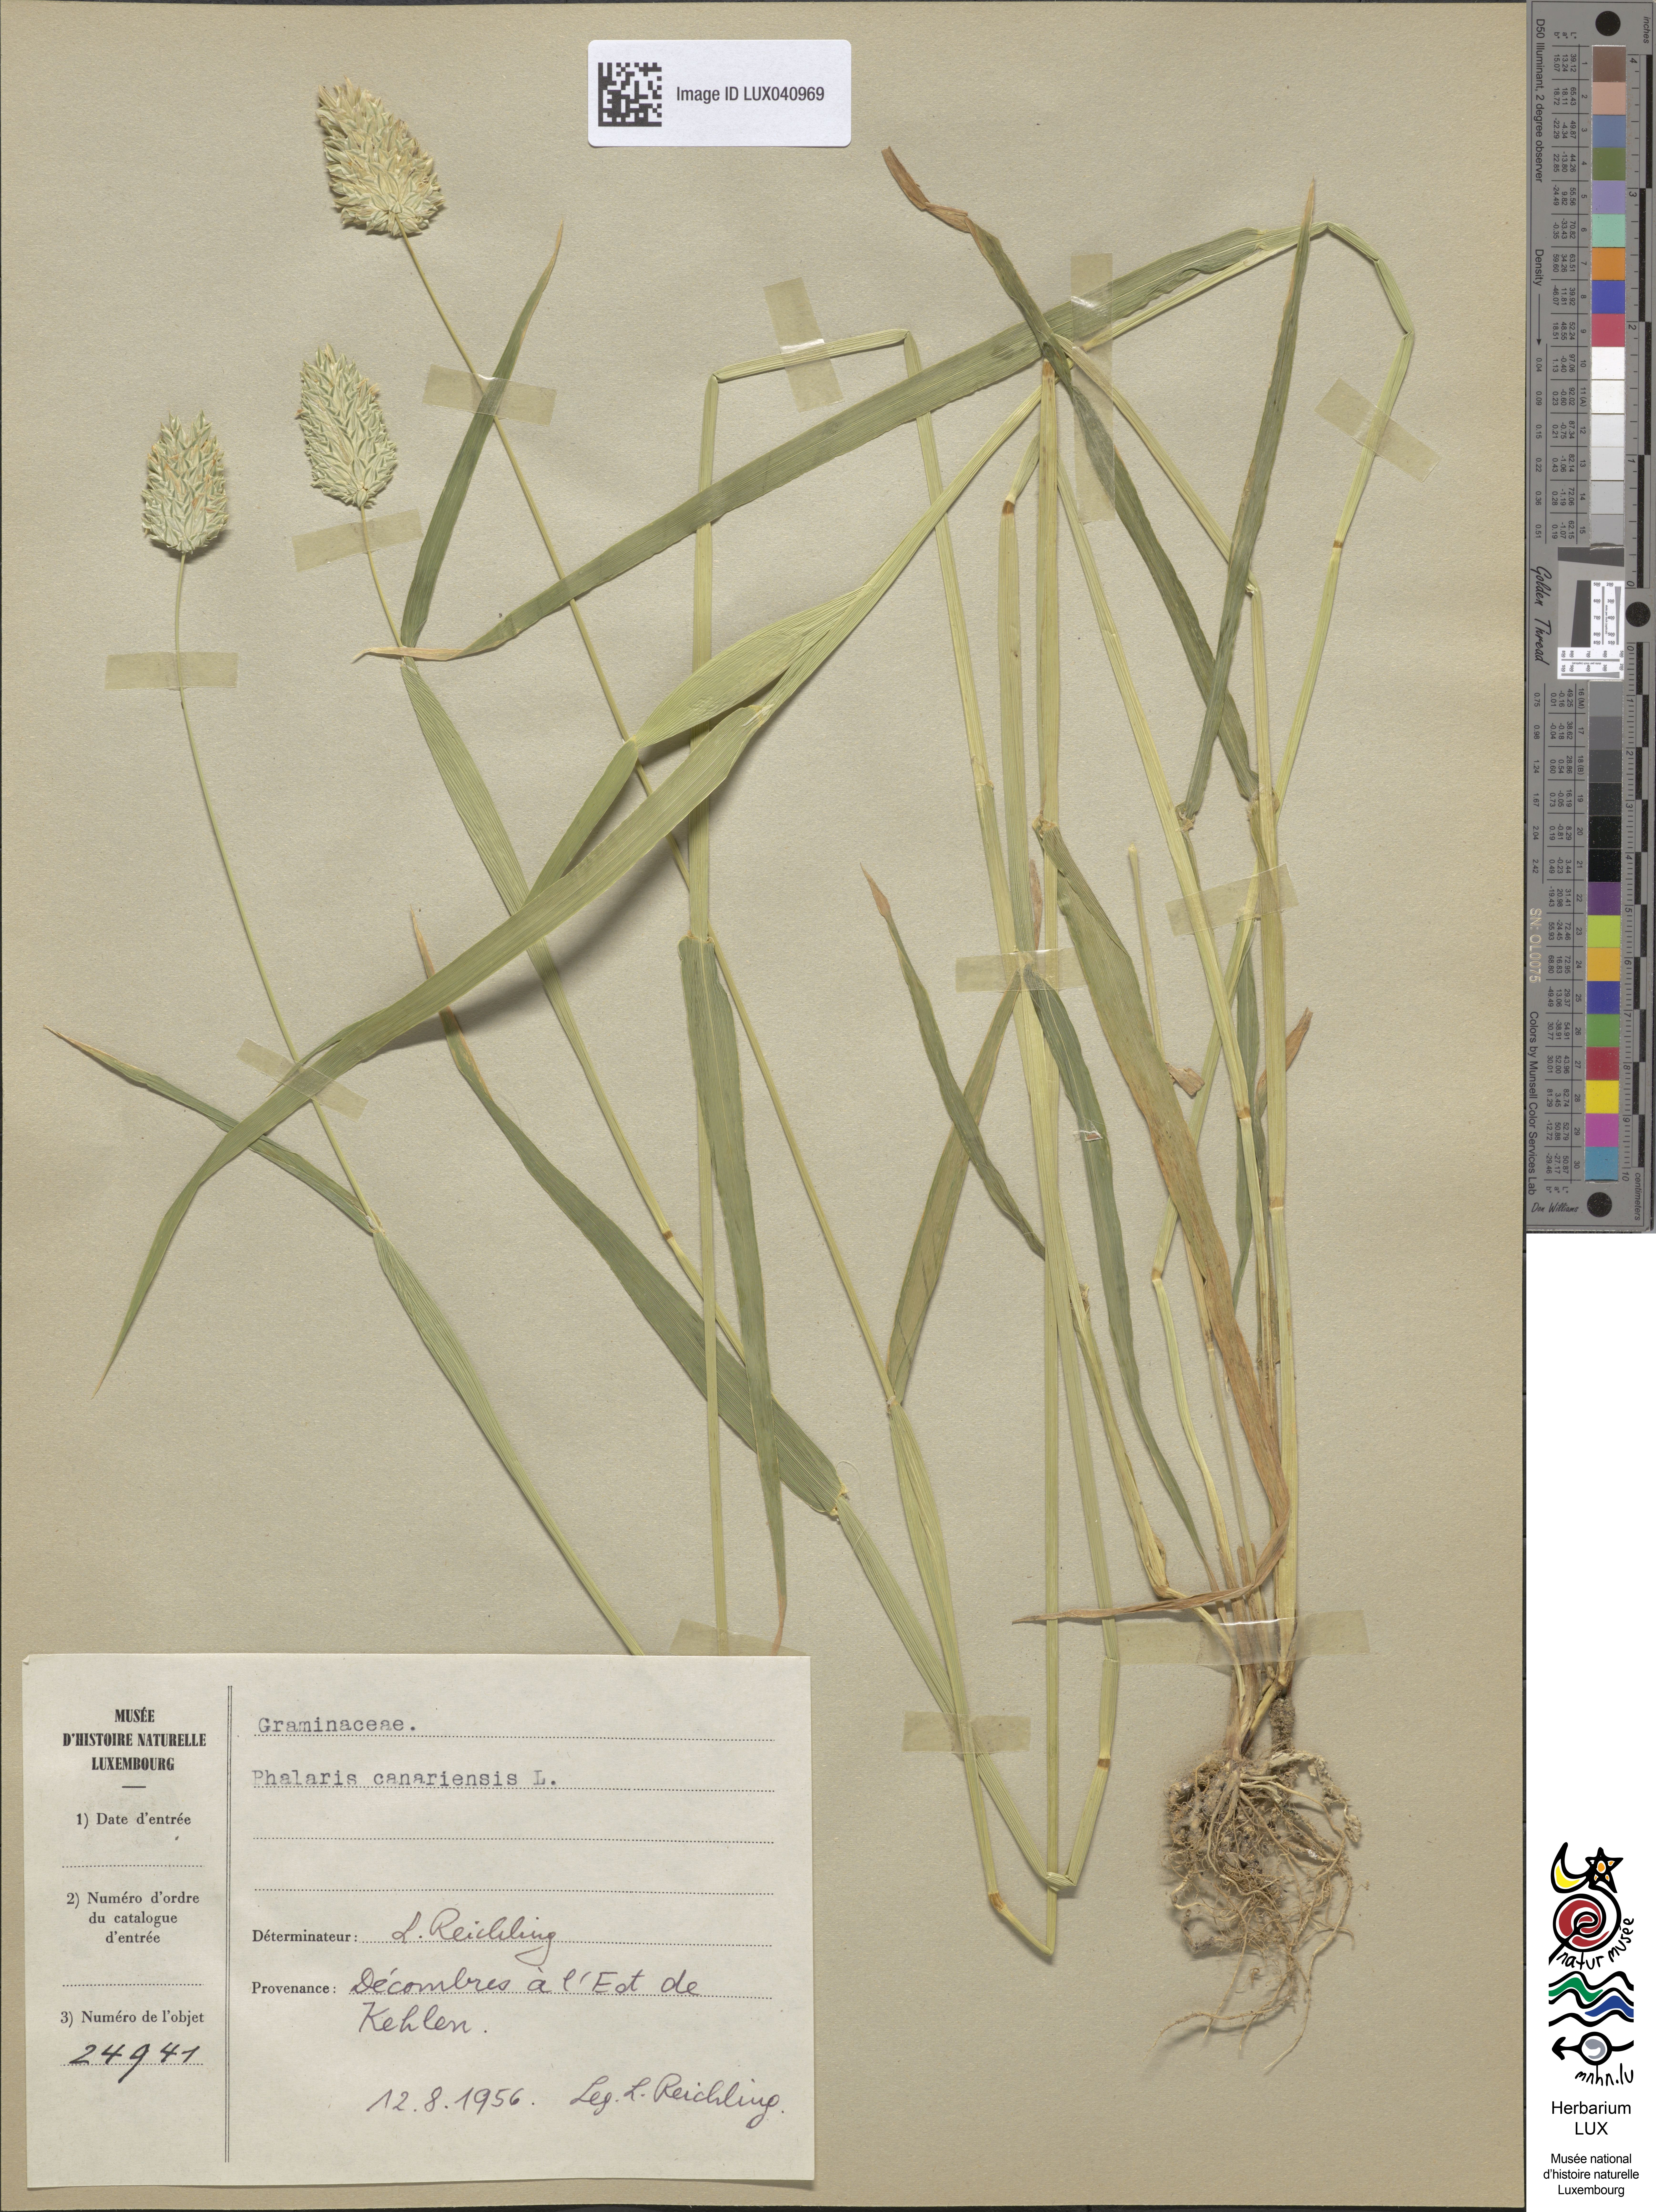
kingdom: Plantae
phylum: Tracheophyta
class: Liliopsida
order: Poales
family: Poaceae
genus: Phalaris
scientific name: Phalaris canariensis
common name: Annual canarygrass
